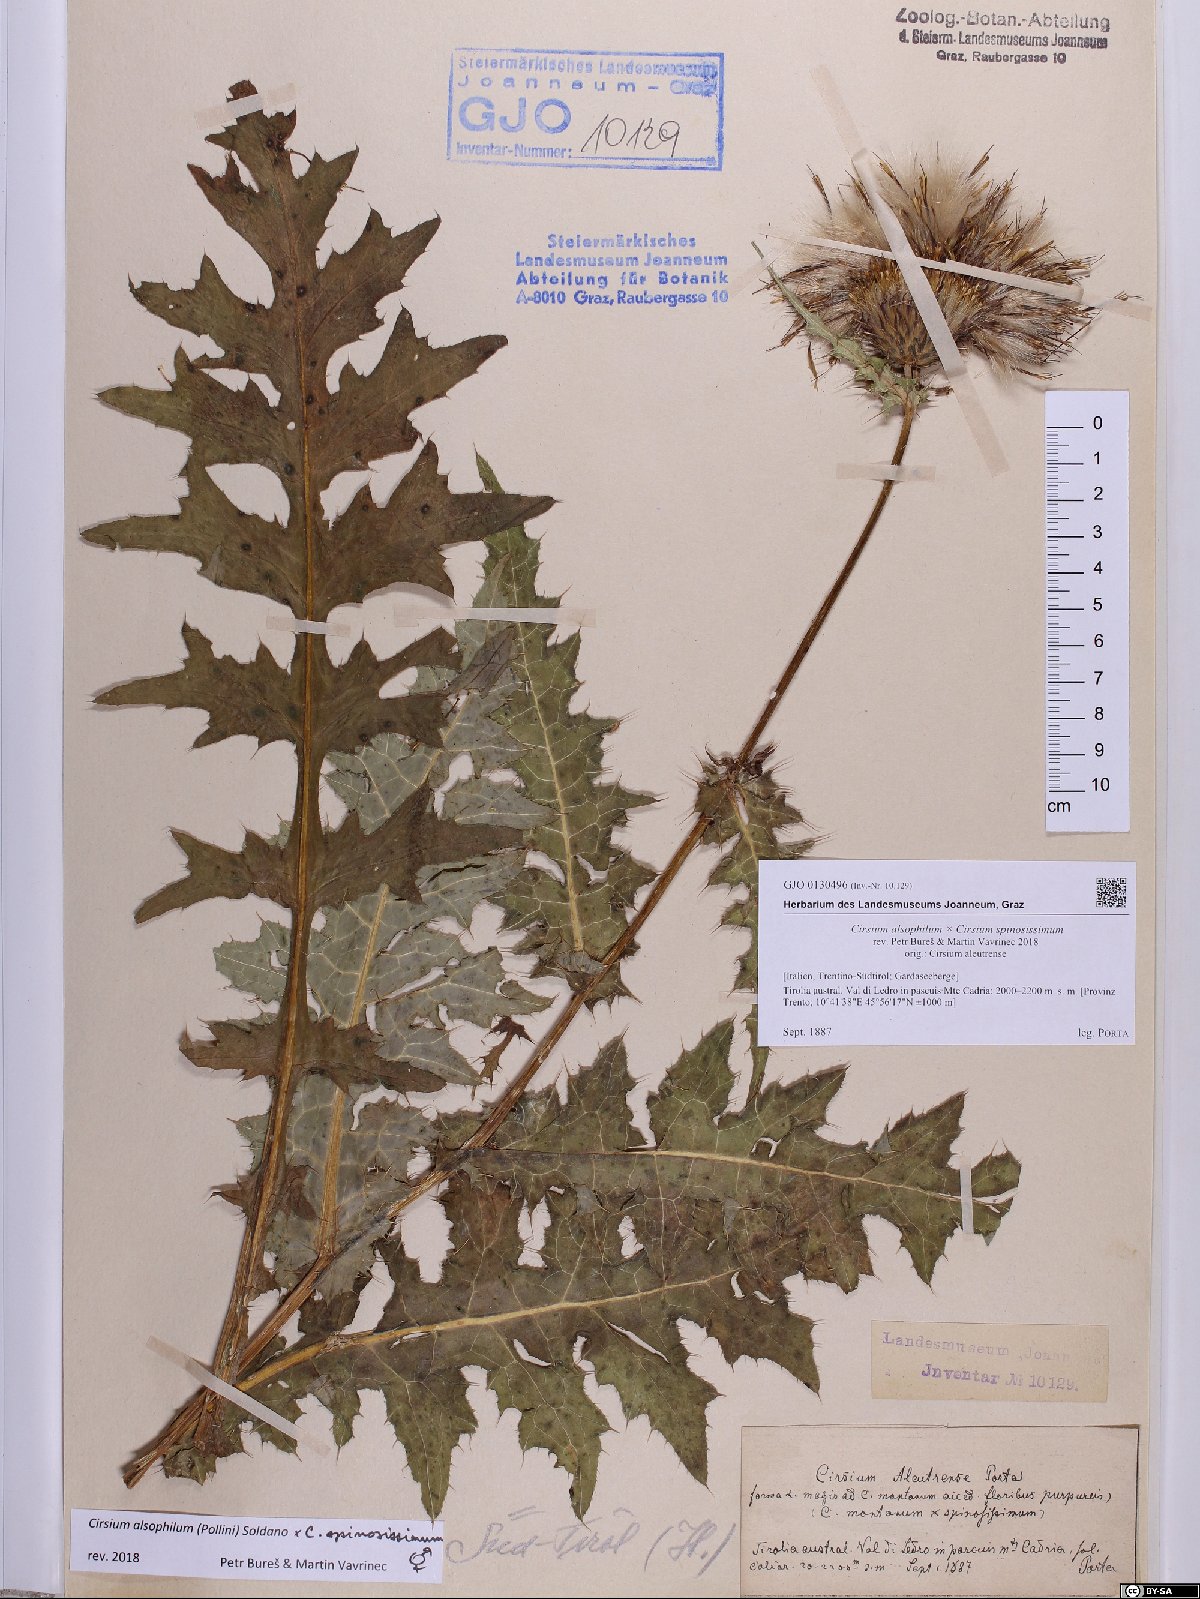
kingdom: Plantae
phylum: Tracheophyta
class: Magnoliopsida
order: Asterales
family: Asteraceae
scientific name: Asteraceae
